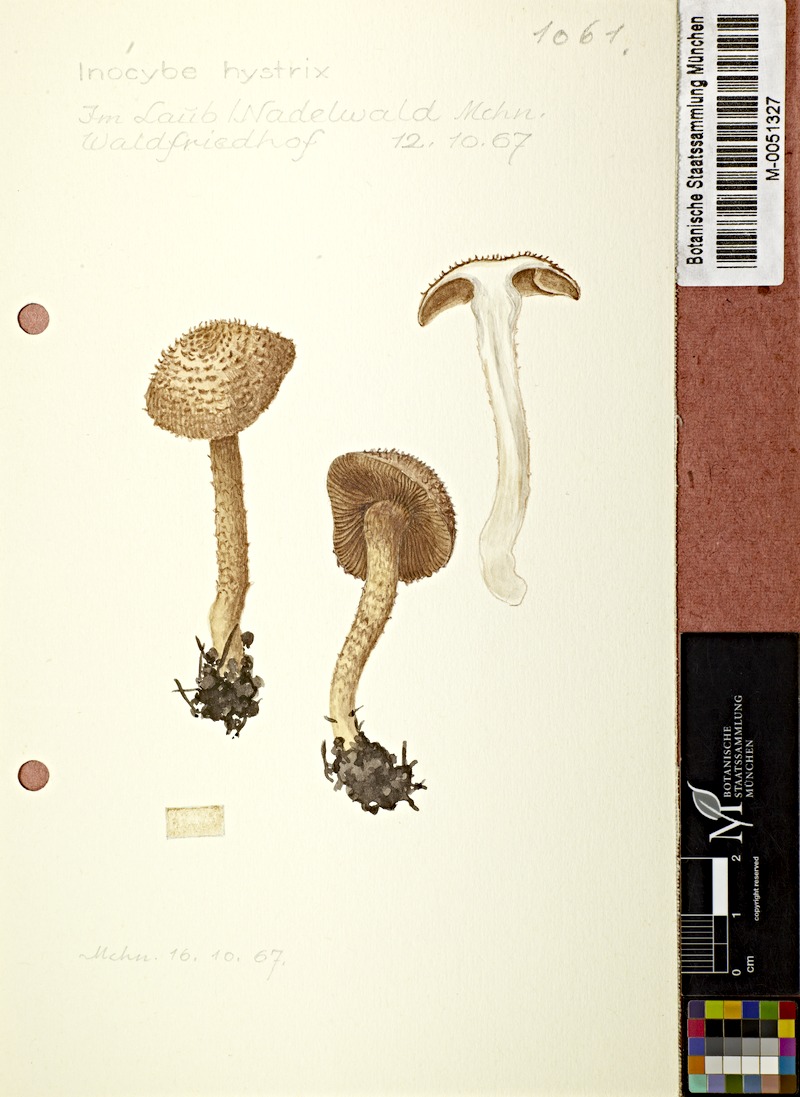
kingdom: Fungi
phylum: Basidiomycota
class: Agaricomycetes
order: Agaricales
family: Inocybaceae
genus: Inocybe
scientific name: Inocybe hystrix
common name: Scaly fibrecap
